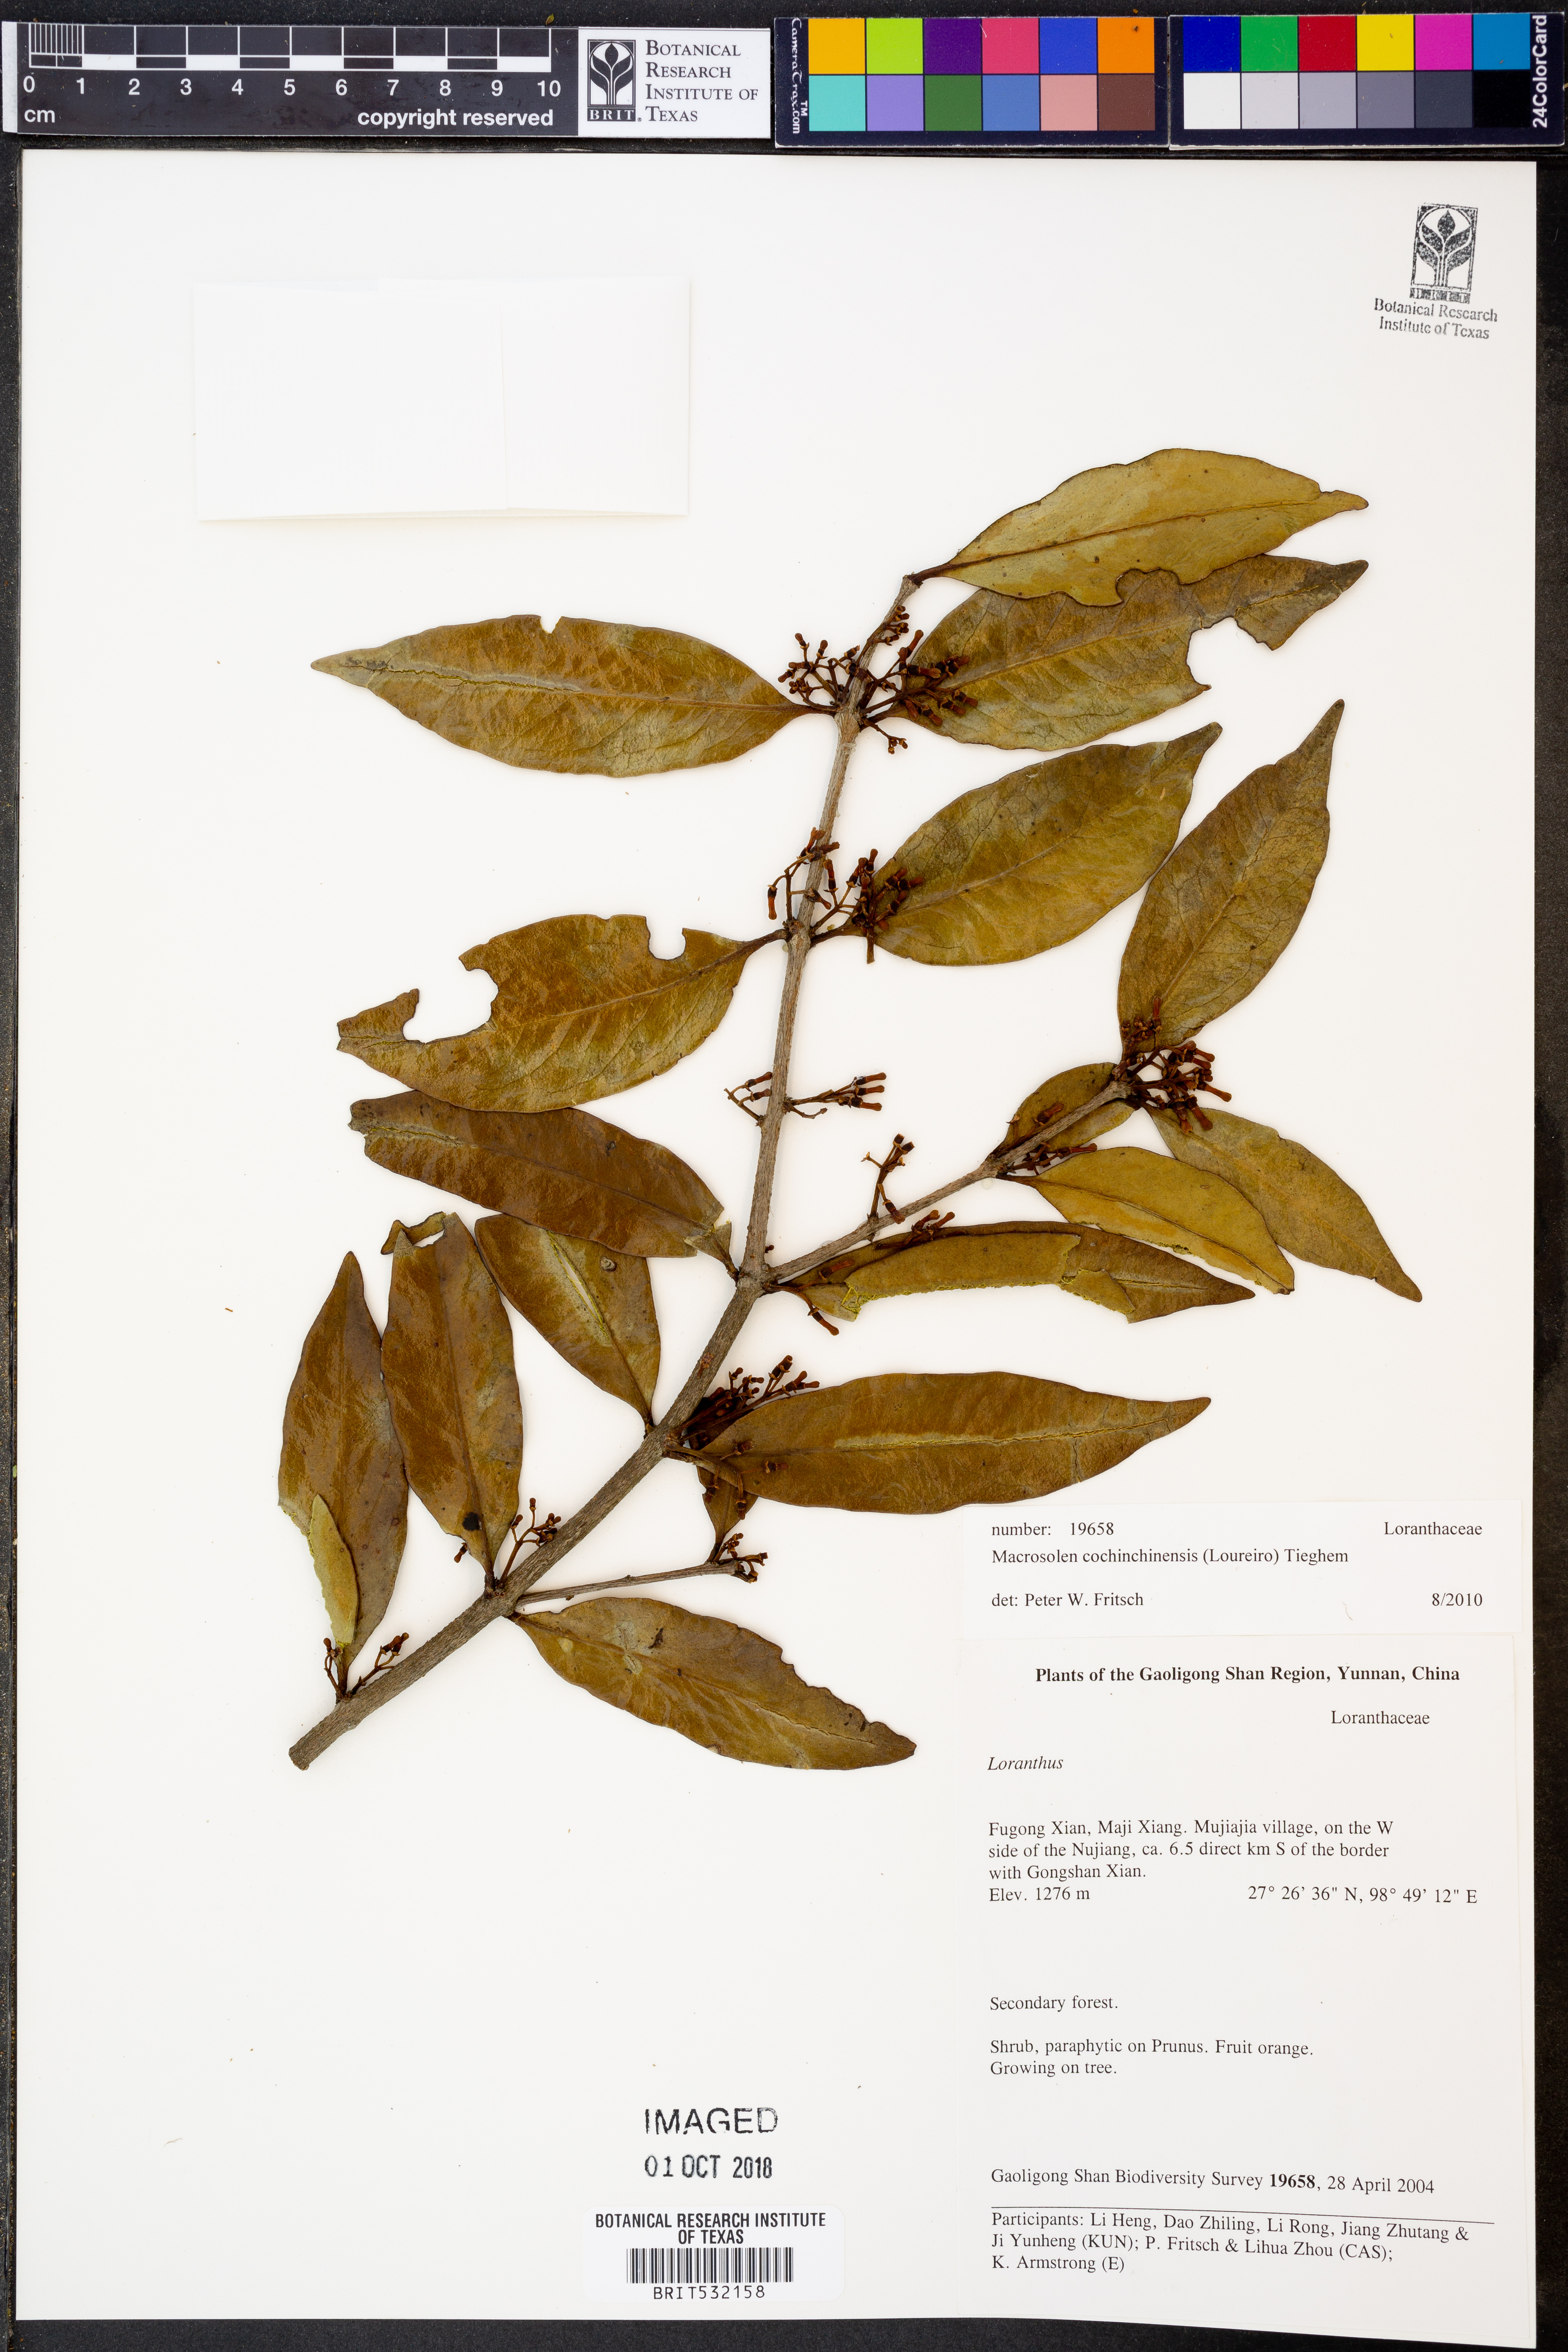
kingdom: Plantae
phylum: Tracheophyta
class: Magnoliopsida
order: Santalales
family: Loranthaceae
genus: Macrosolen
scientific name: Macrosolen cochinchinensis
